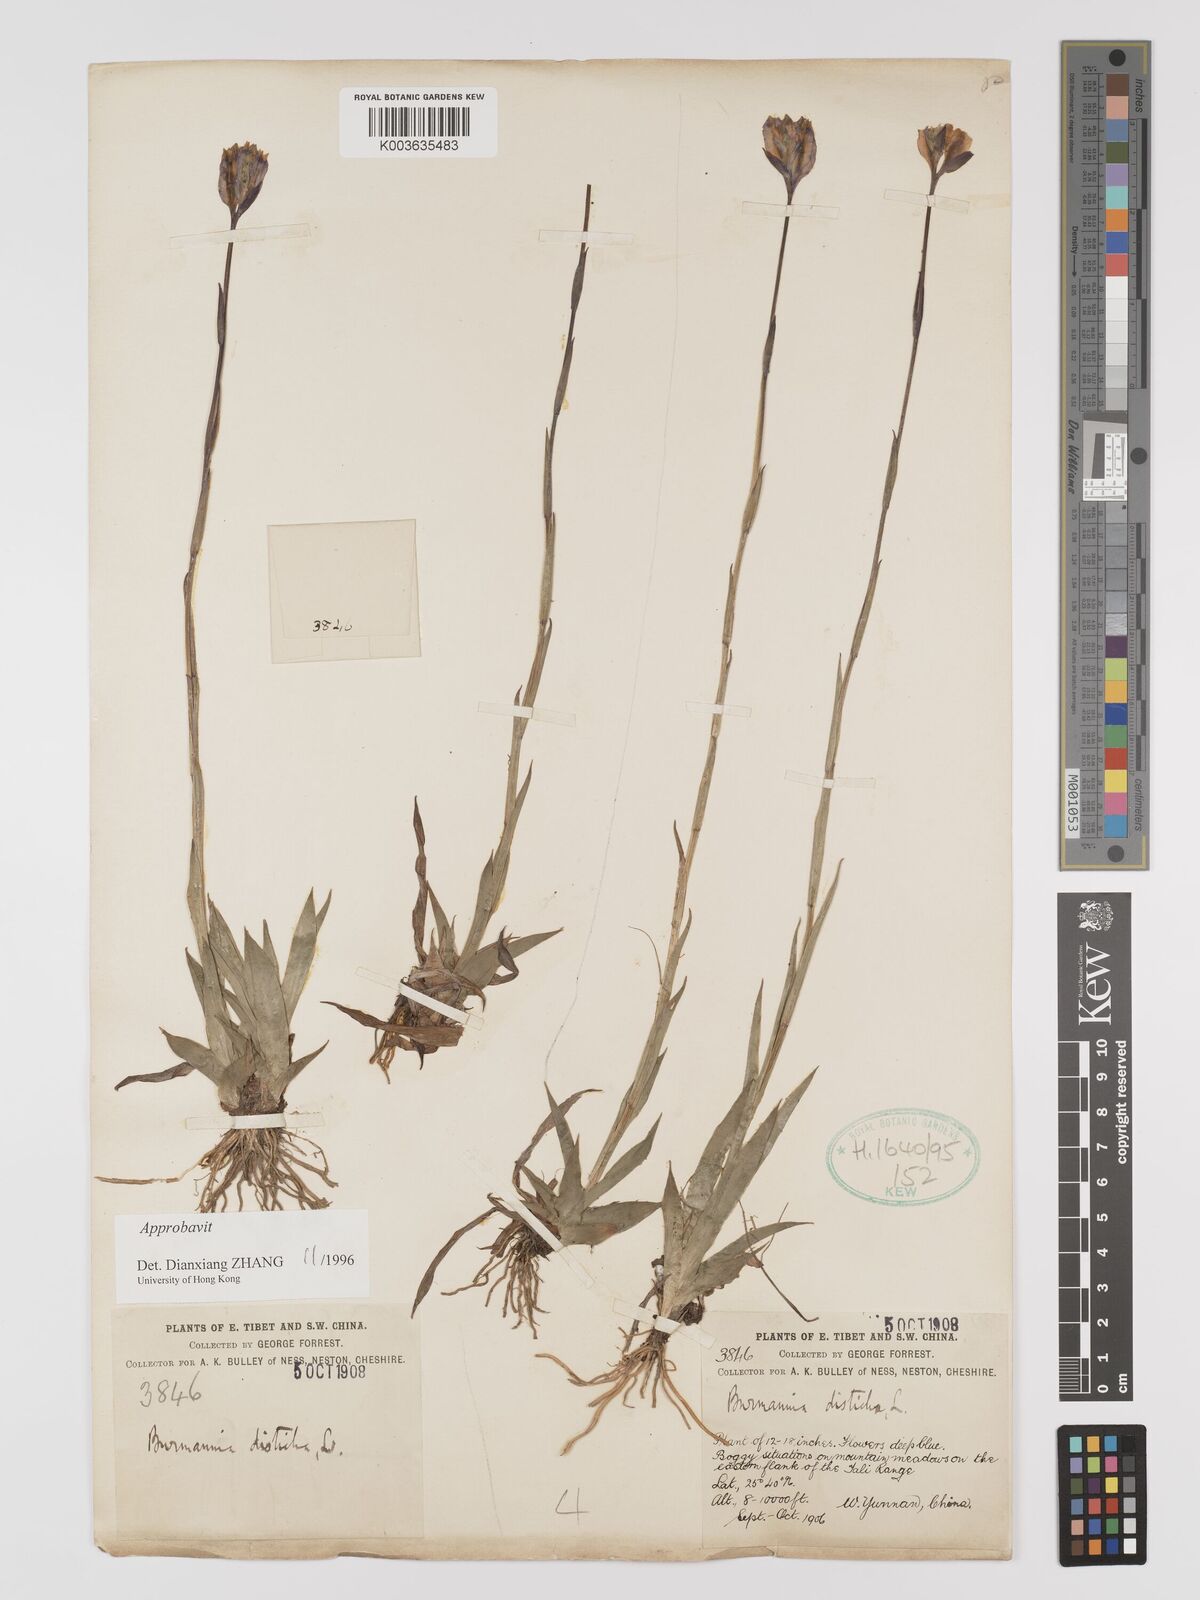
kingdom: Plantae
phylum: Tracheophyta
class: Liliopsida
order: Dioscoreales
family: Burmanniaceae
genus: Burmannia
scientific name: Burmannia disticha
